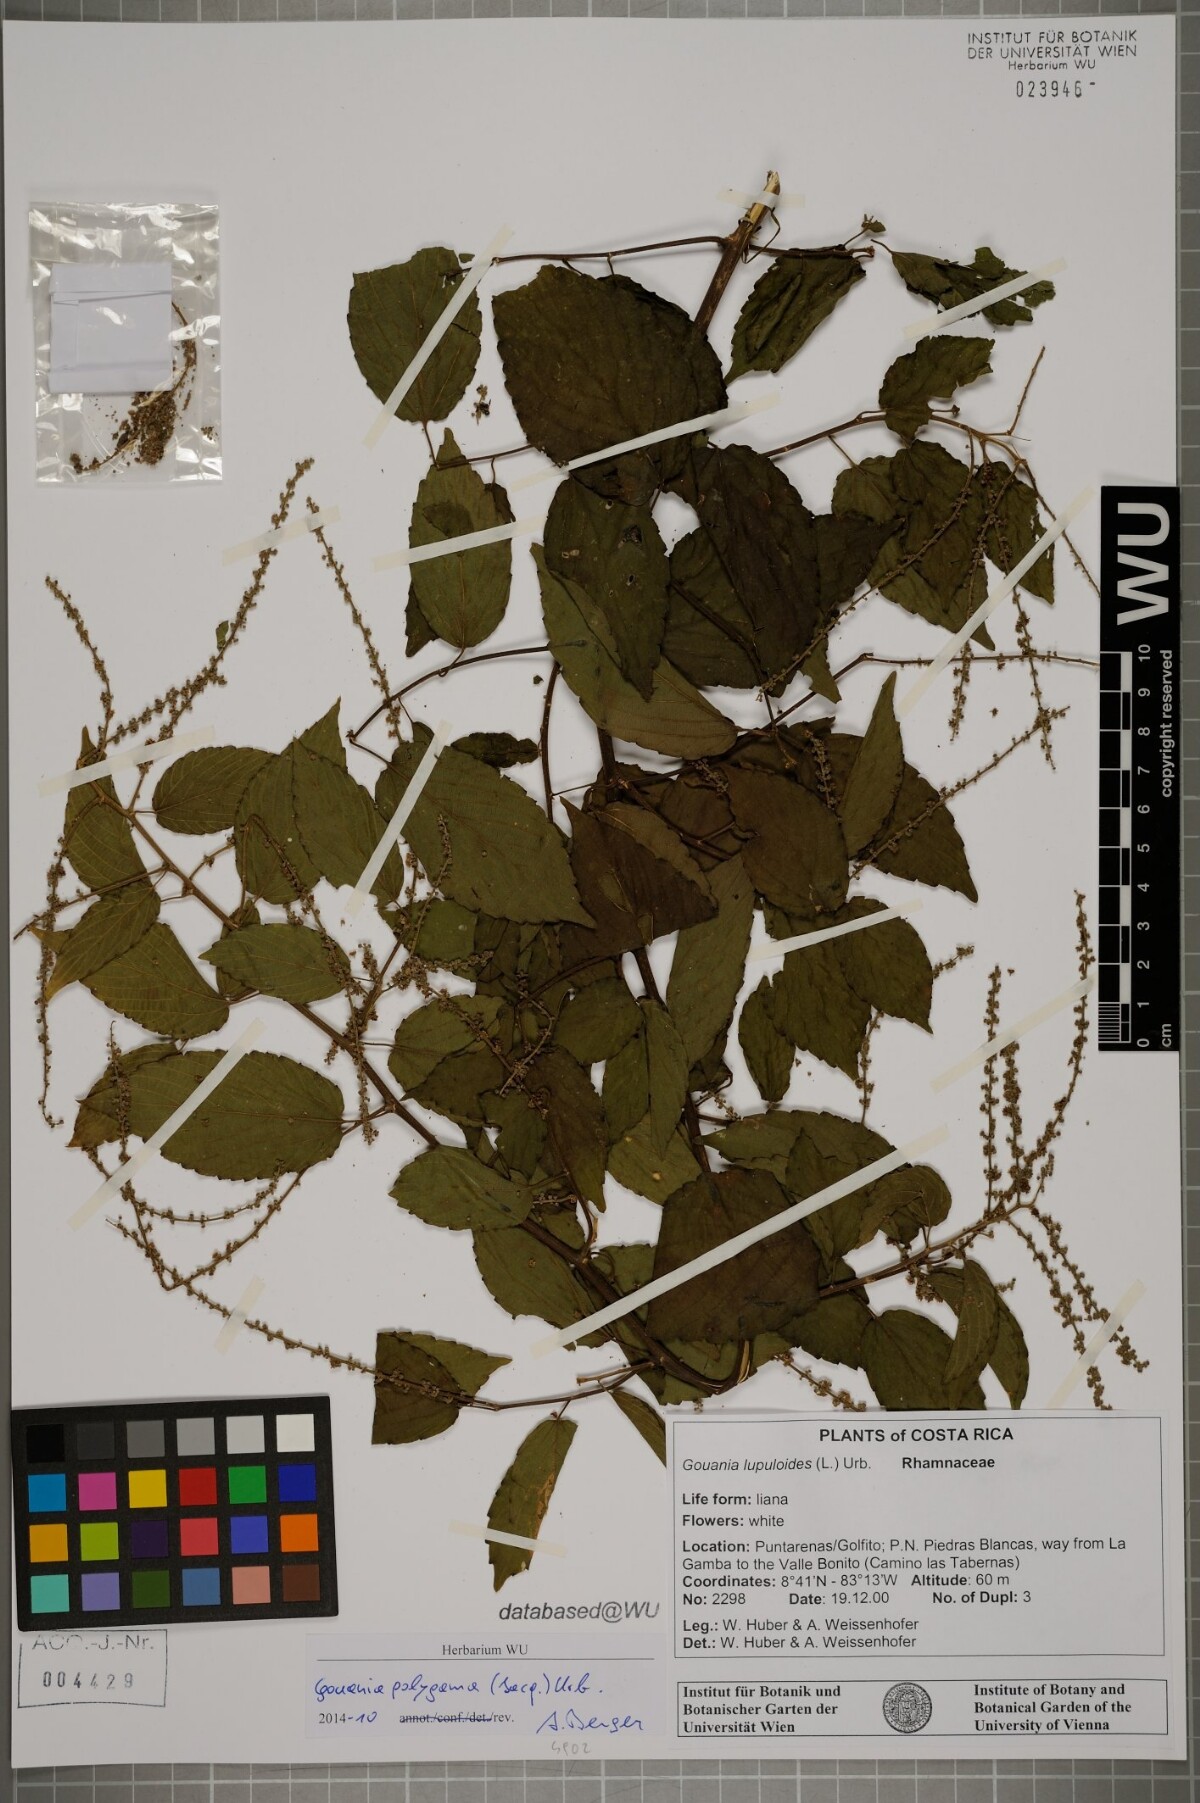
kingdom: Plantae
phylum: Tracheophyta
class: Magnoliopsida
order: Rosales
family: Rhamnaceae
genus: Gouania
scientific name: Gouania polygama
